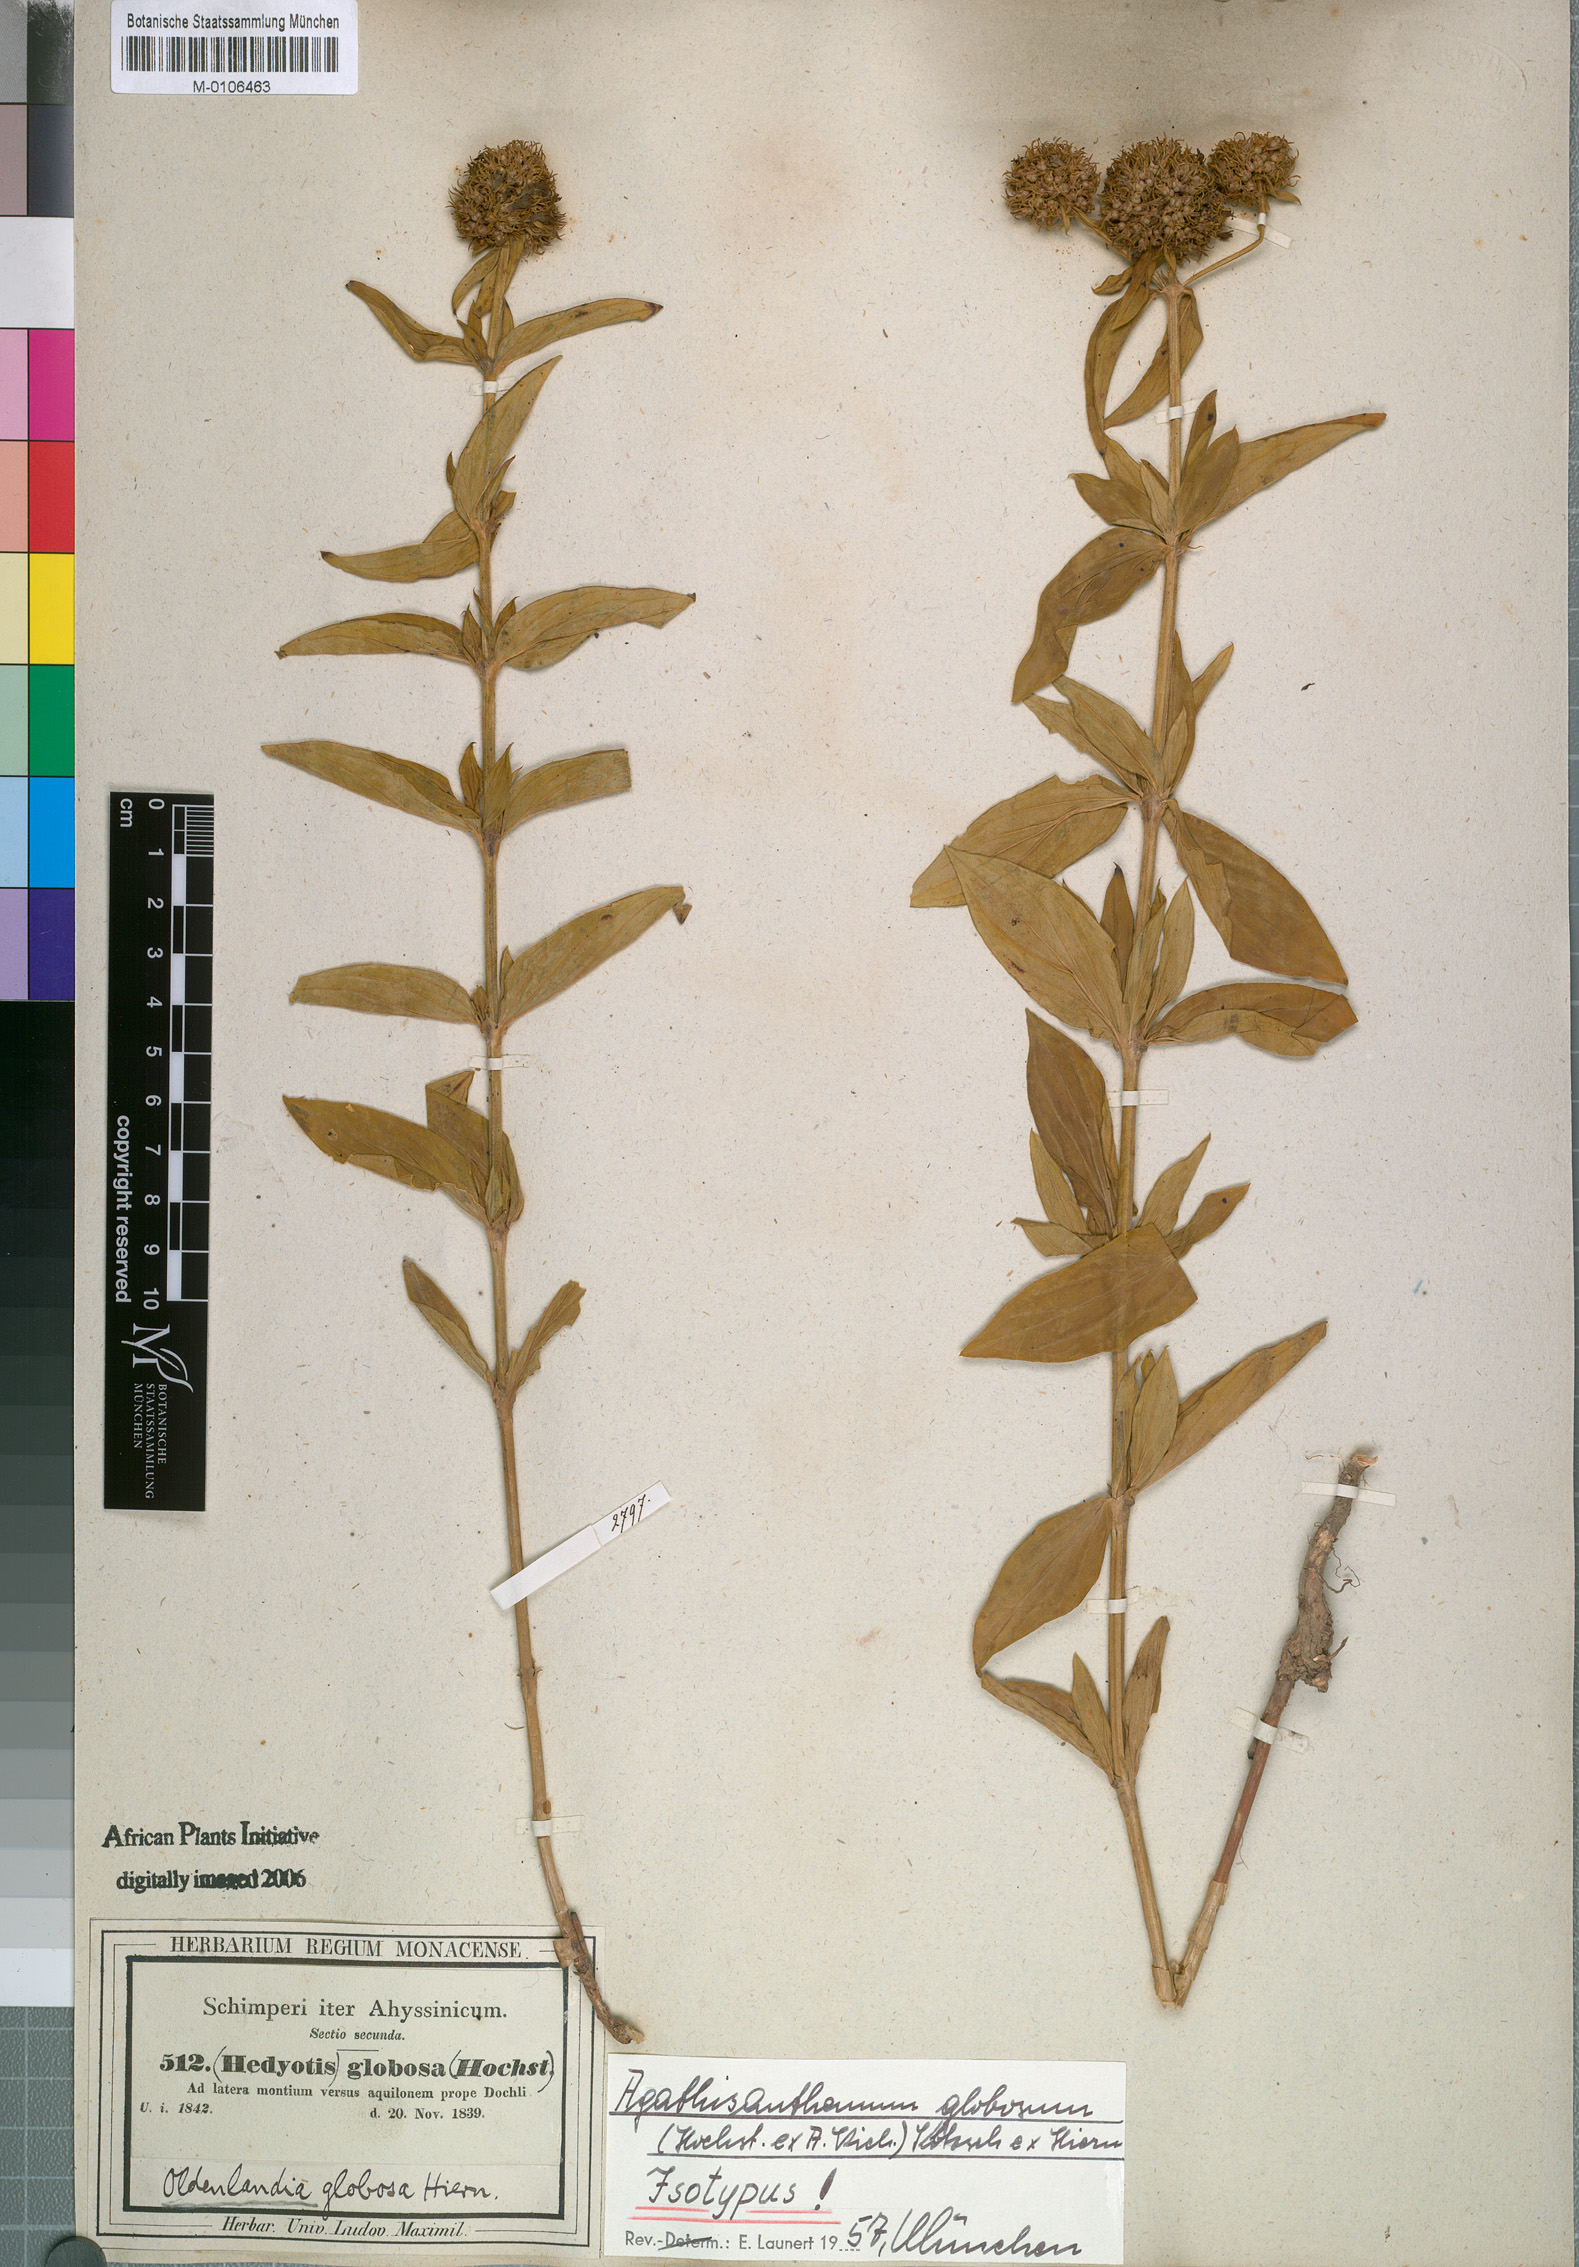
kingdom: Plantae
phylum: Tracheophyta
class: Magnoliopsida
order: Gentianales
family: Rubiaceae
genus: Agathisanthemum
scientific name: Agathisanthemum globosum
